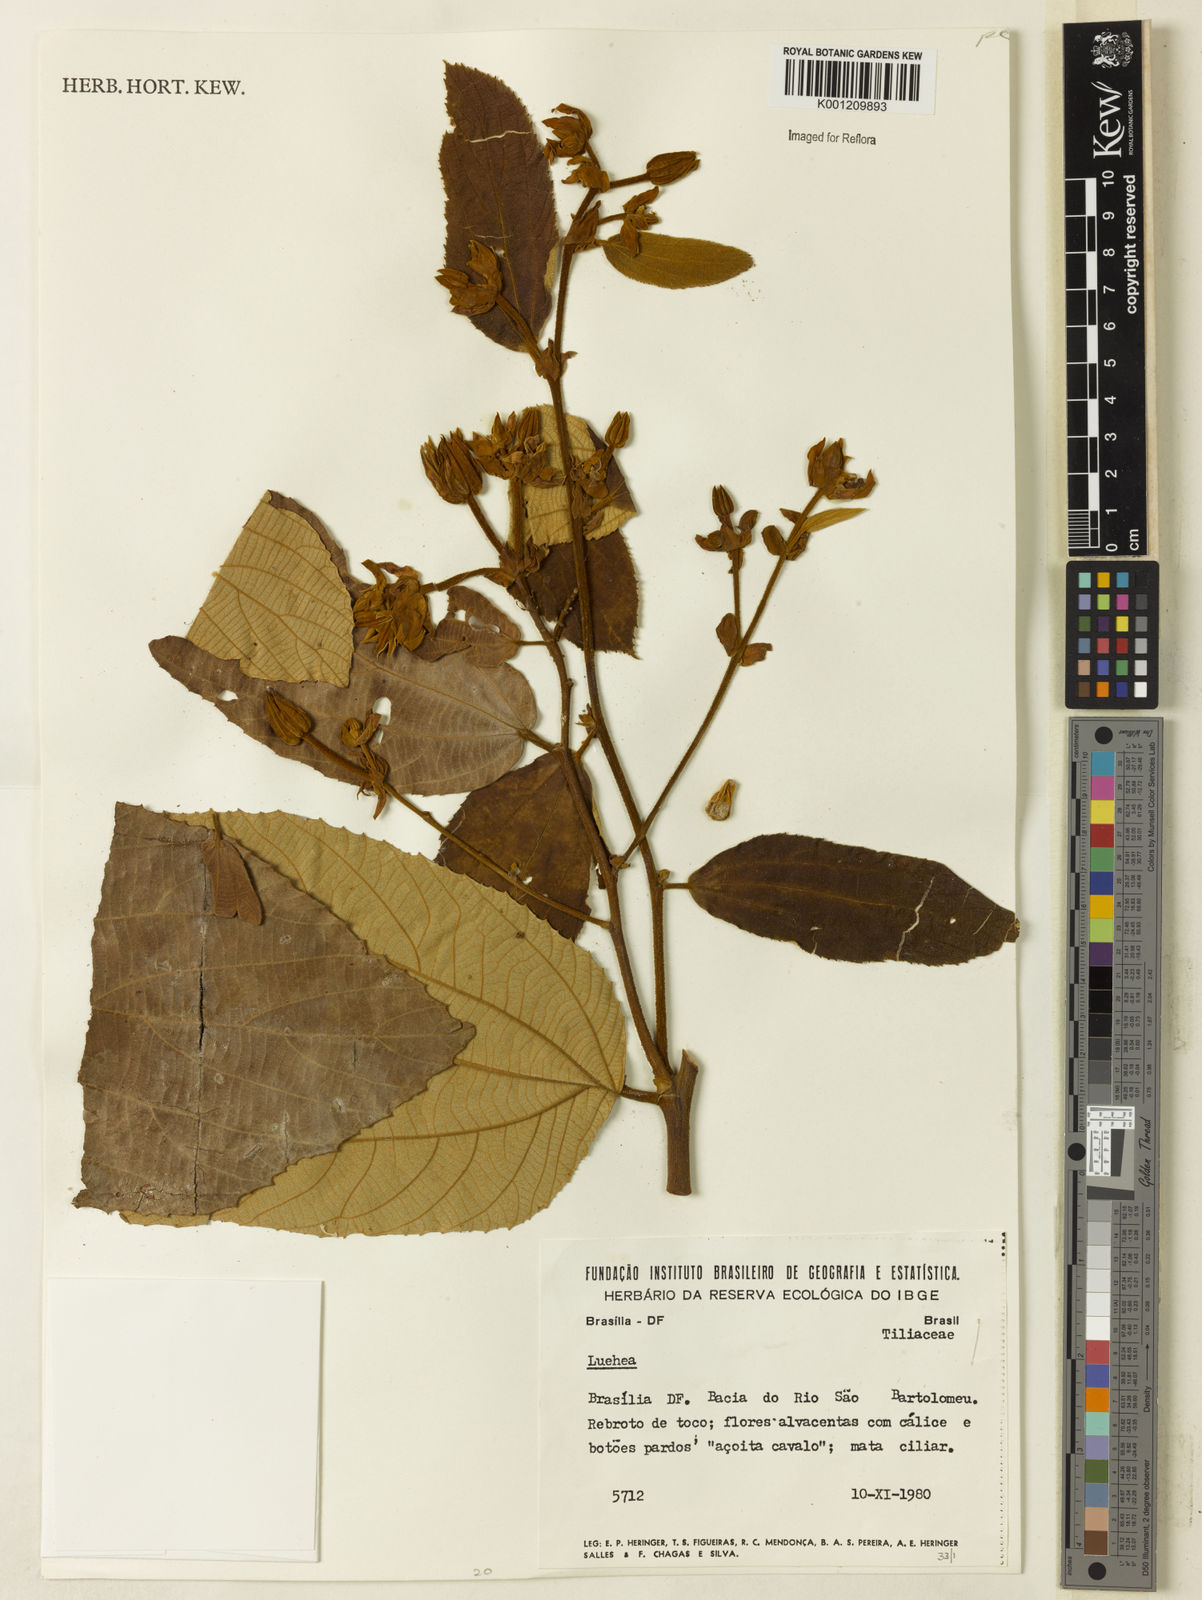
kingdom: Plantae
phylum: Tracheophyta
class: Magnoliopsida
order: Malvales
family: Malvaceae
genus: Luehea
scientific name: Luehea
